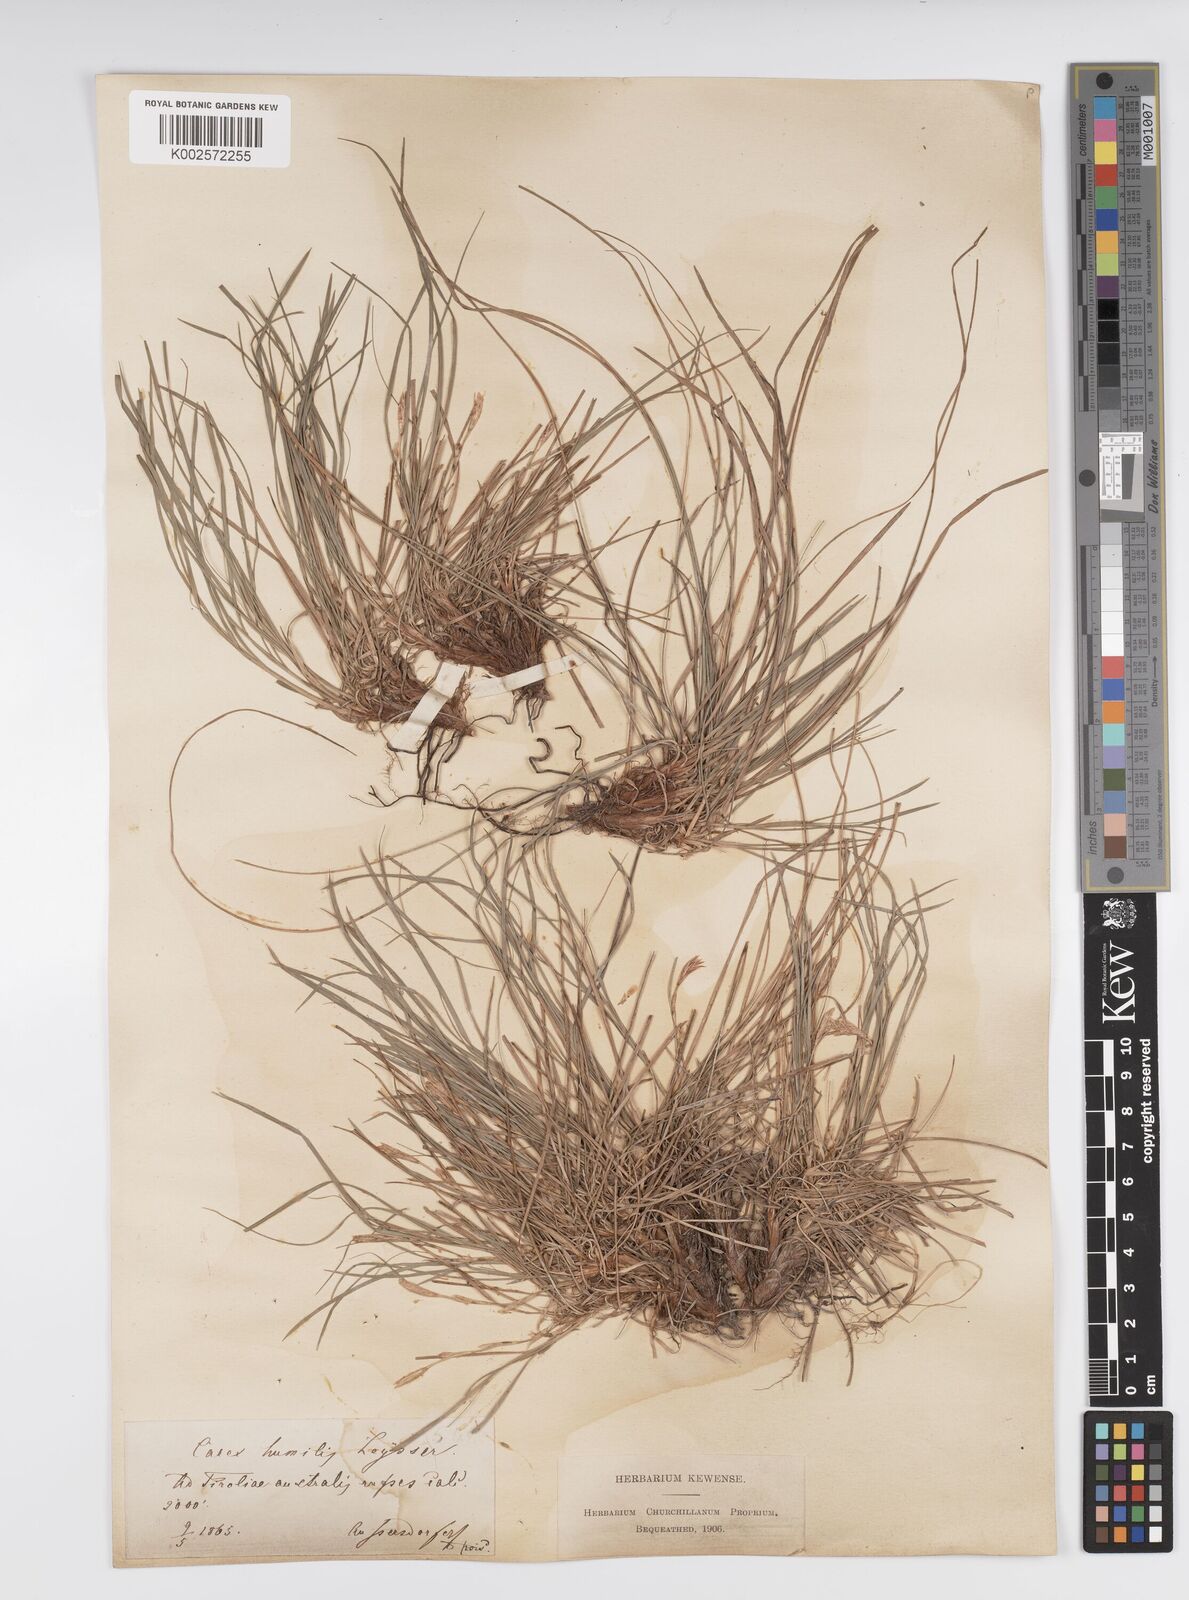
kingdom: Plantae
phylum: Tracheophyta
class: Liliopsida
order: Poales
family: Cyperaceae
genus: Carex
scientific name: Carex humilis
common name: Dwarf sedge
